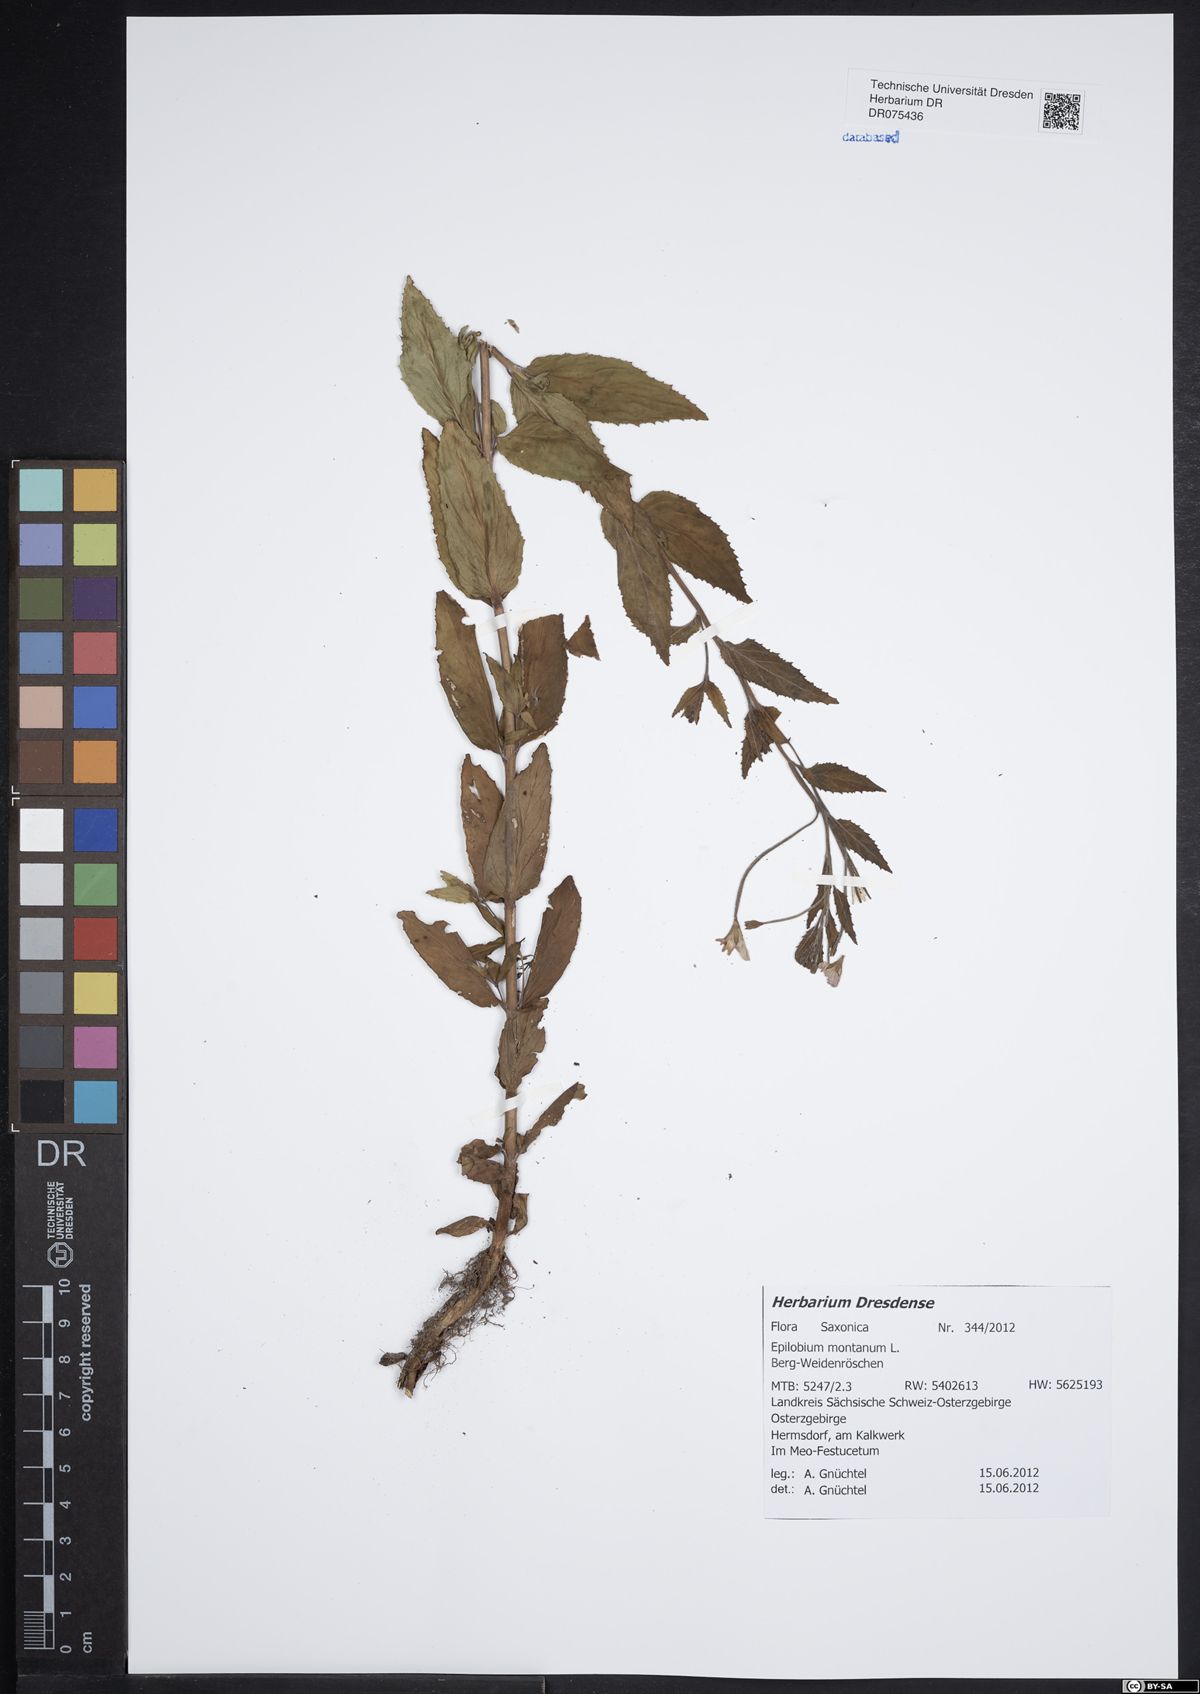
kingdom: Plantae
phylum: Tracheophyta
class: Magnoliopsida
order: Myrtales
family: Onagraceae
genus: Epilobium
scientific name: Epilobium montanum
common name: Broad-leaved willowherb
